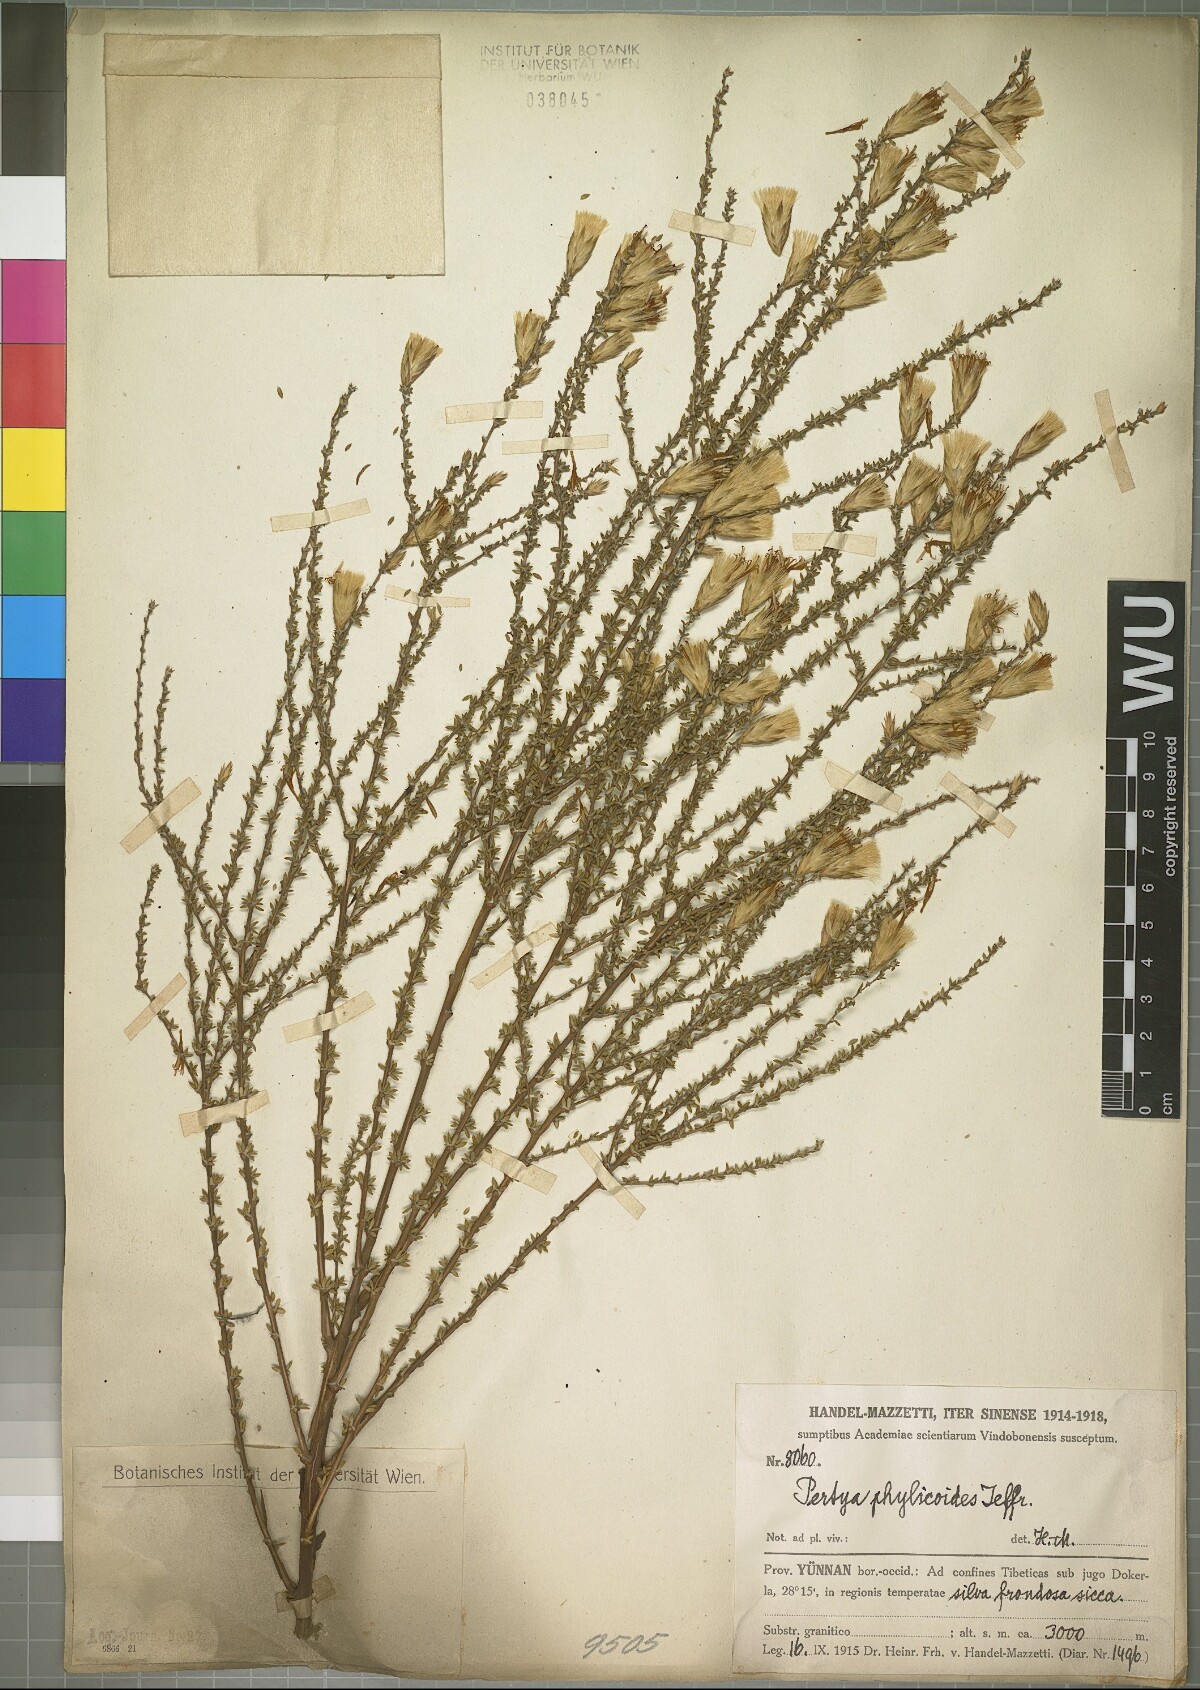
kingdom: Plantae
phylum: Tracheophyta
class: Magnoliopsida
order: Asterales
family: Asteraceae
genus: Pertya
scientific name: Pertya berberidoides
